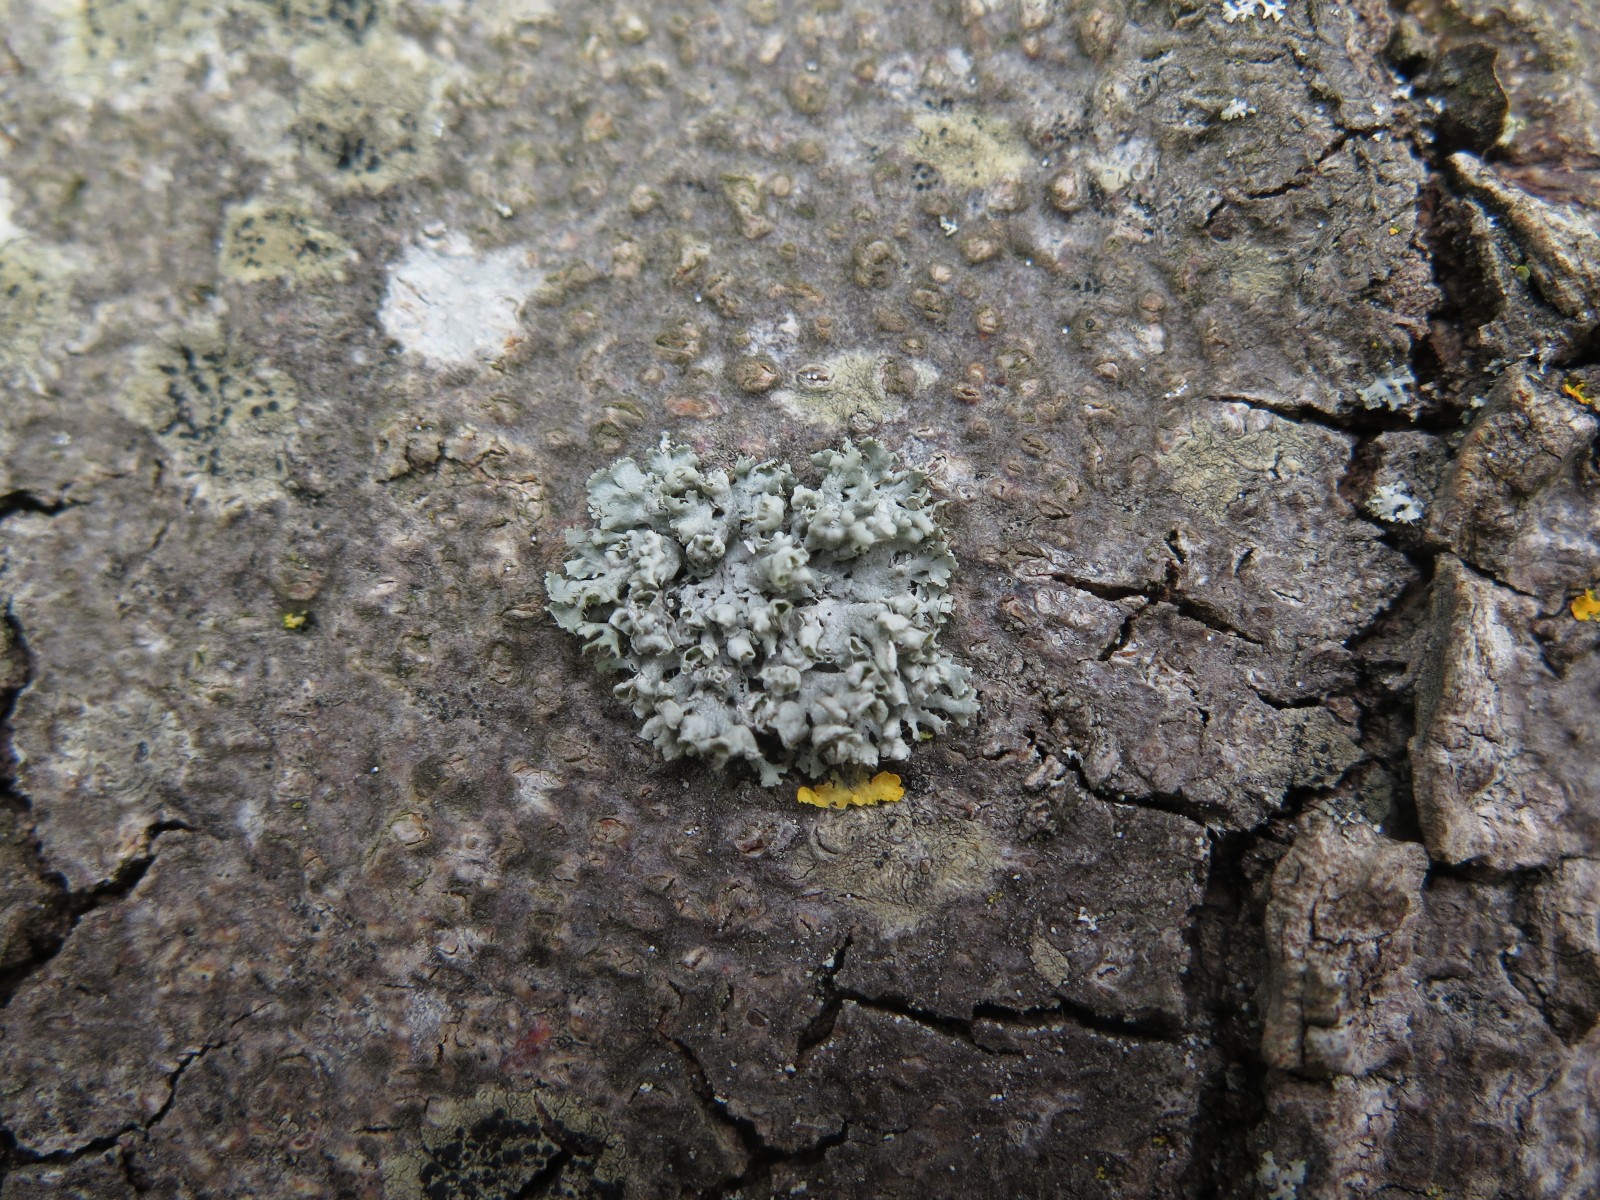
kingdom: Fungi
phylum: Ascomycota
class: Lecanoromycetes
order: Caliciales
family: Physciaceae
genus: Physcia
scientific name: Physcia adscendens
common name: hætte-rosetlav
